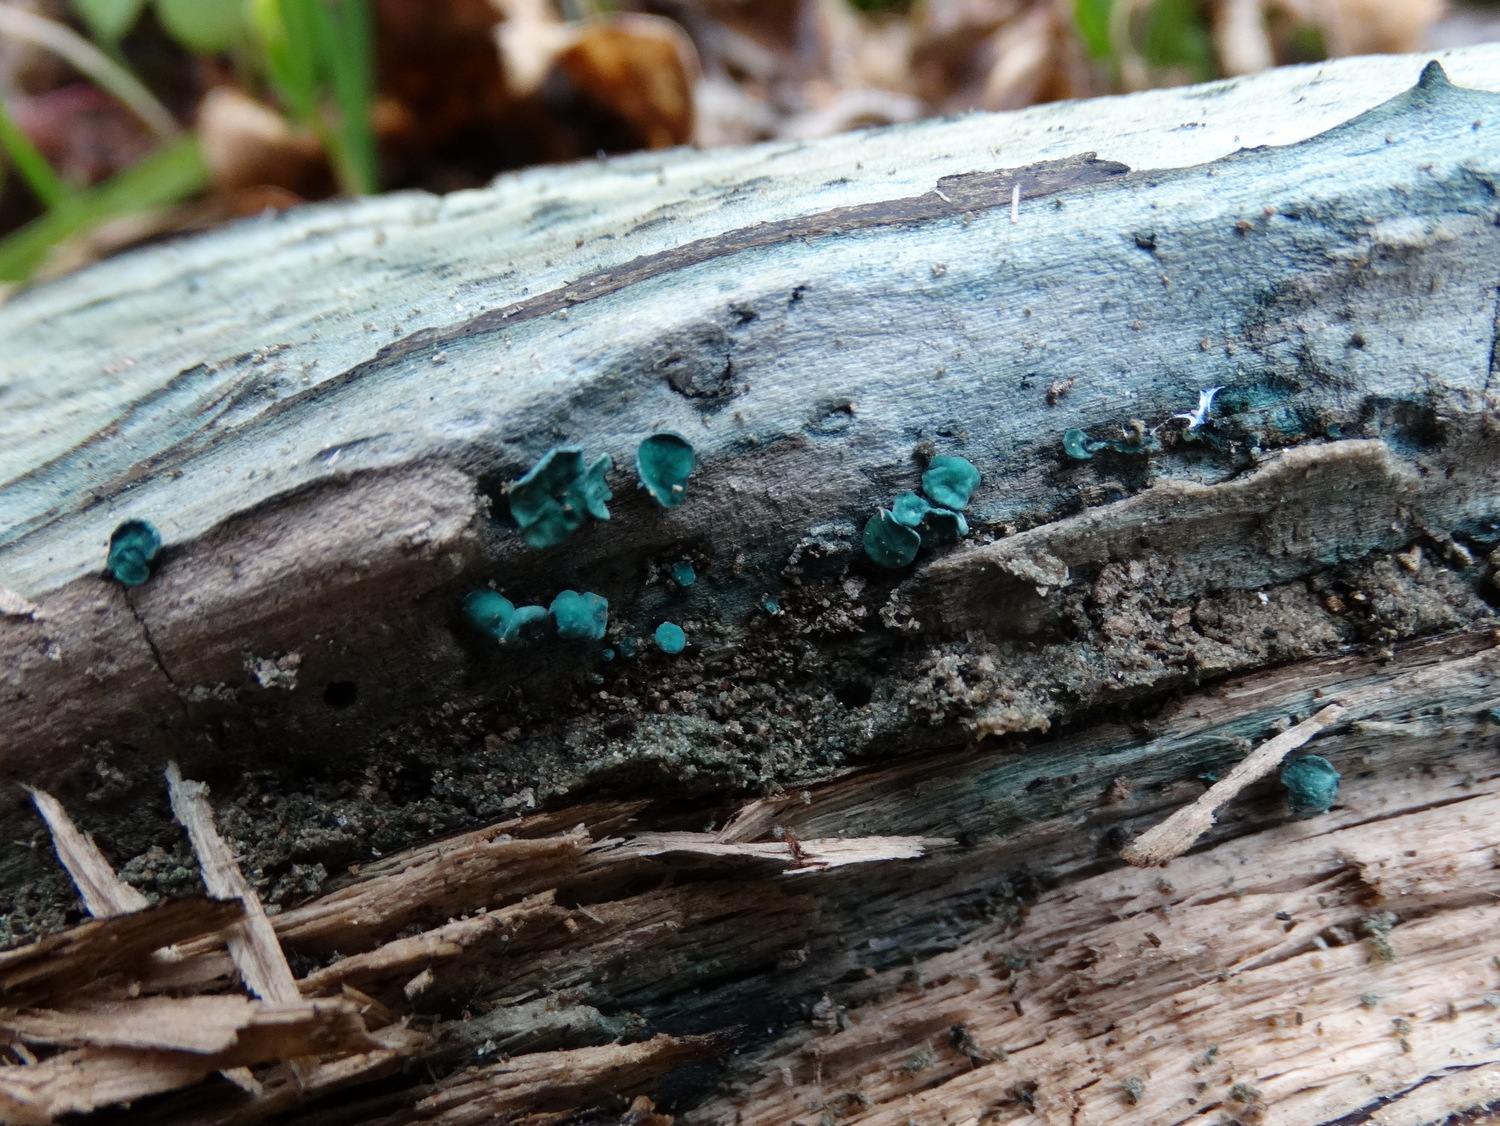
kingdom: Fungi
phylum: Ascomycota
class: Leotiomycetes
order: Helotiales
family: Chlorociboriaceae
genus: Chlorociboria
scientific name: Chlorociboria aeruginascens
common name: almindelig grønskive
